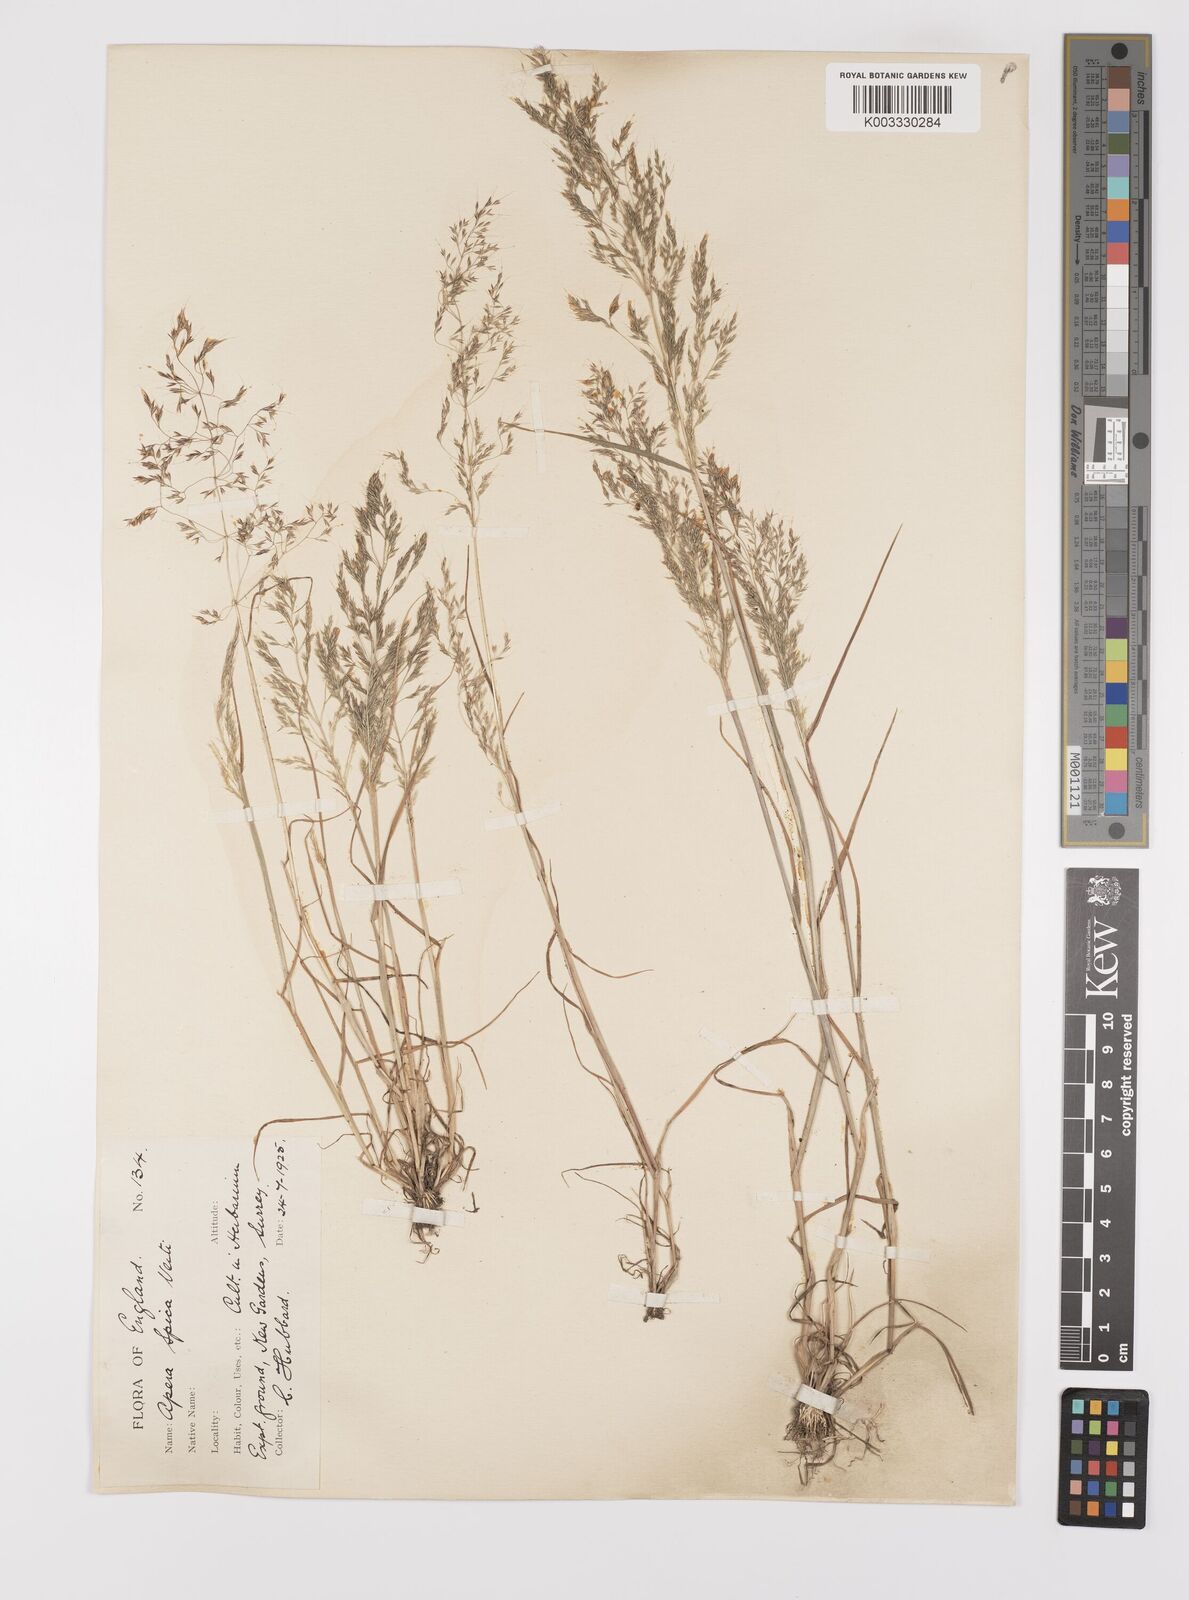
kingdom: Plantae
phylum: Tracheophyta
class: Liliopsida
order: Poales
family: Poaceae
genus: Apera
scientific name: Apera spica-venti
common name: Loose silky-bent
